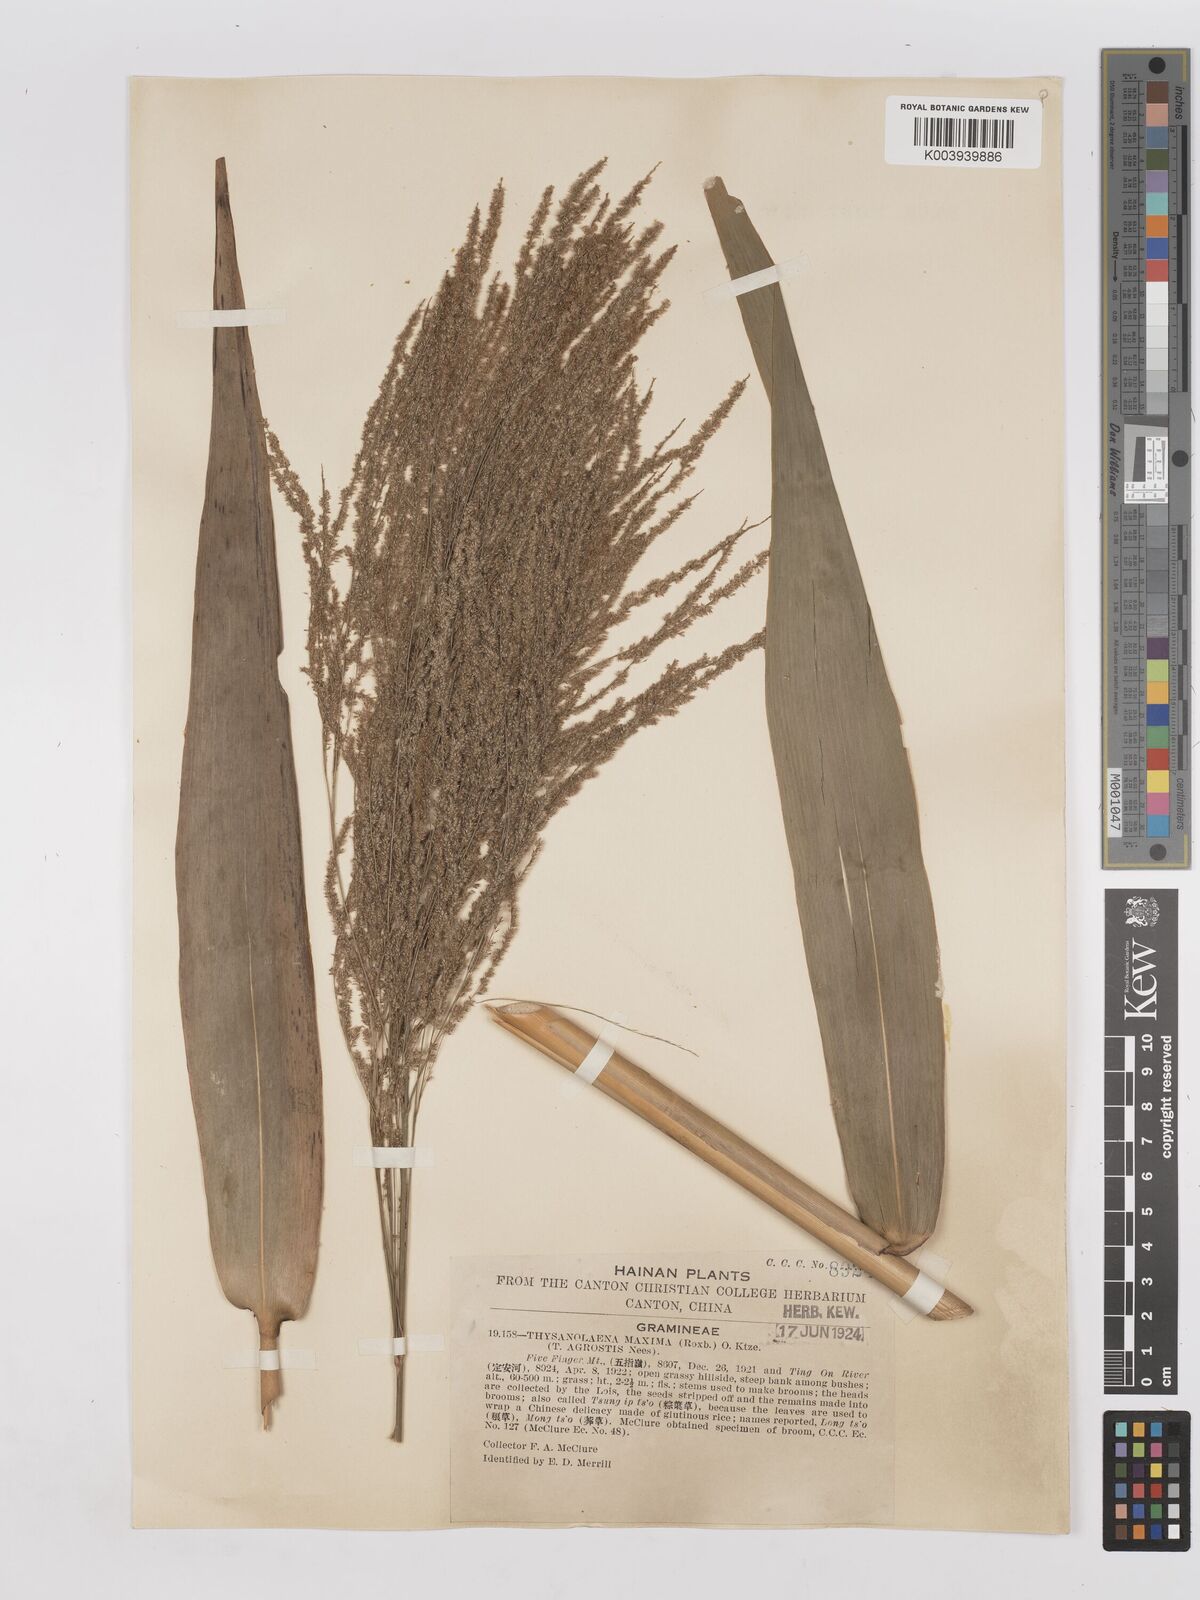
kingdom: Plantae
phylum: Tracheophyta
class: Liliopsida
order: Poales
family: Poaceae
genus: Thysanolaena
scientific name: Thysanolaena latifolia
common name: Tiger grass
